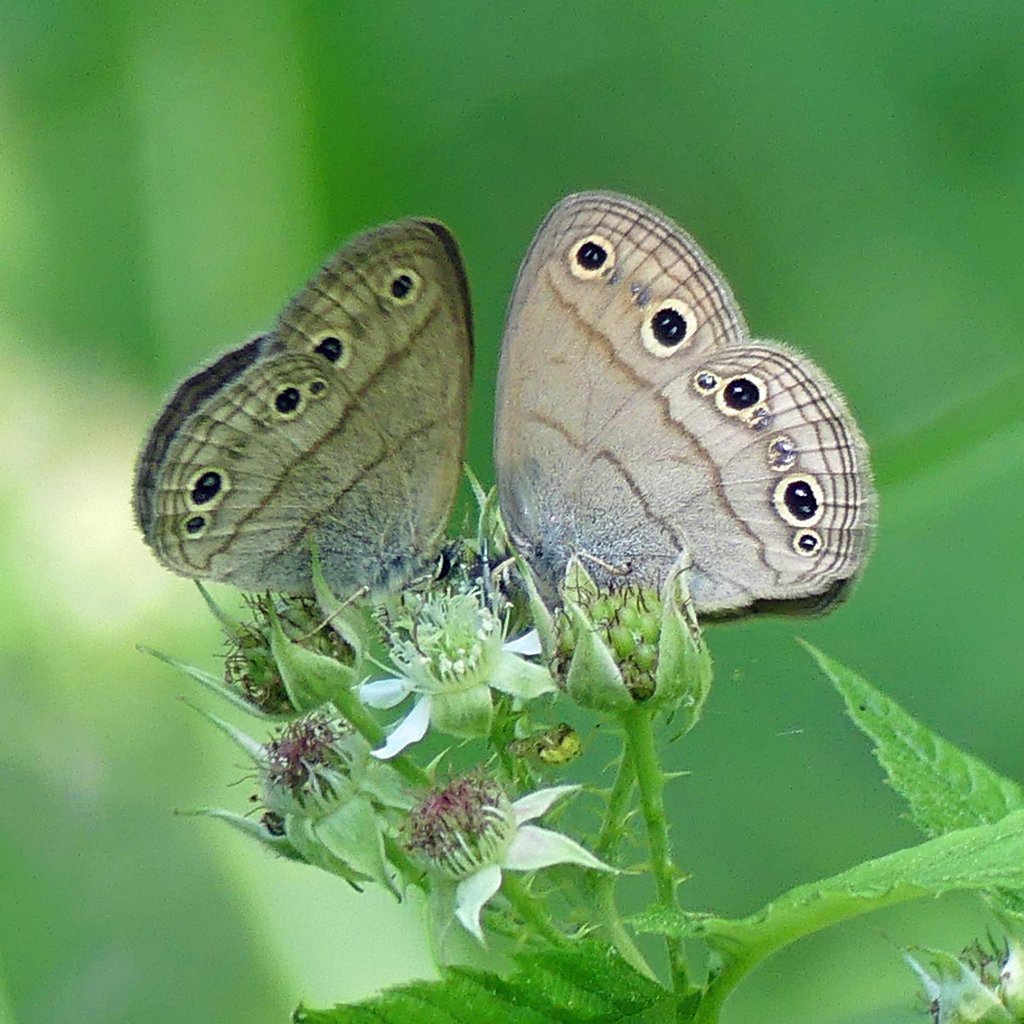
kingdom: Animalia
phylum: Arthropoda
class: Insecta
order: Lepidoptera
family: Nymphalidae
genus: Euptychia
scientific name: Euptychia cymela
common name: Little Wood Satyr
